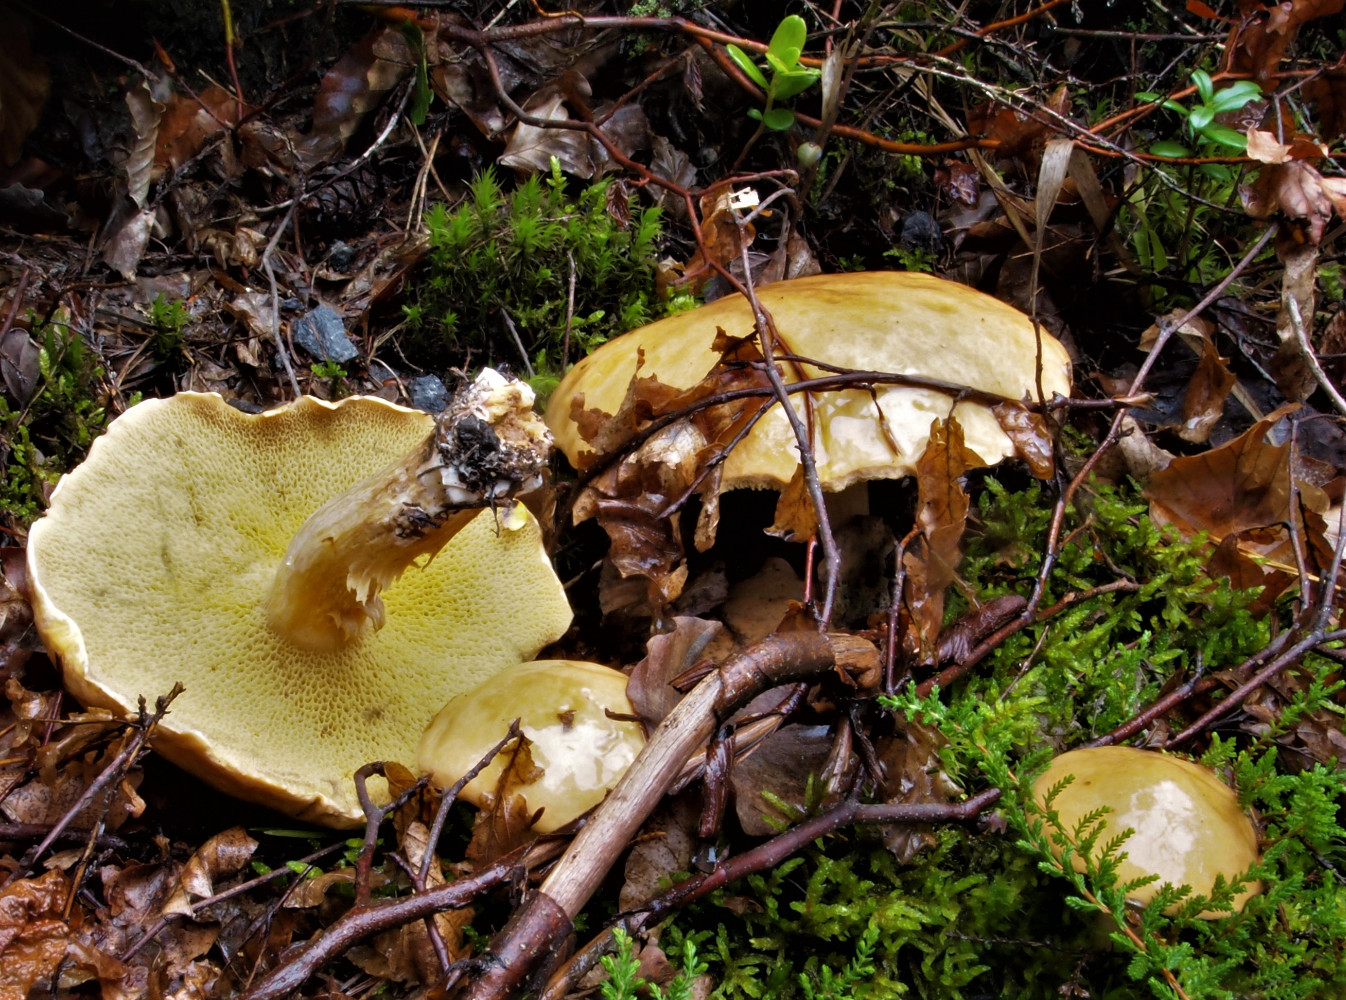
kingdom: Fungi
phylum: Basidiomycota
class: Agaricomycetes
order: Boletales
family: Suillaceae
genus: Suillus
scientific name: Suillus bovinus
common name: grovporet slimrørhat
